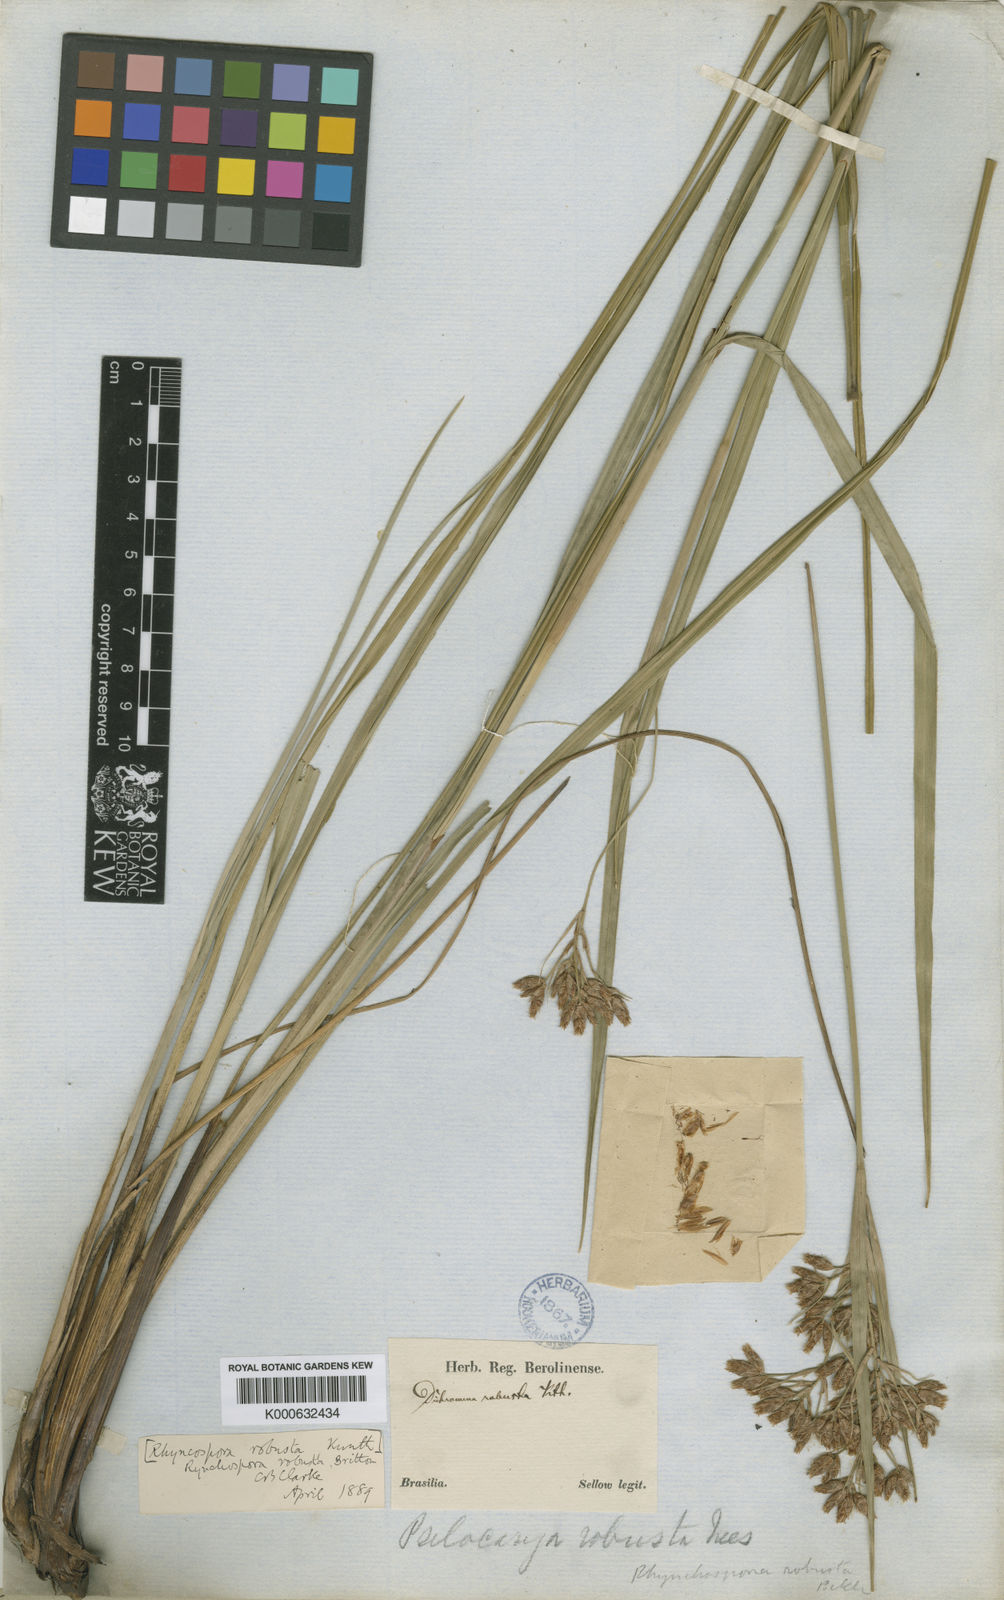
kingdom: Plantae
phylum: Tracheophyta
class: Liliopsida
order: Poales
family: Cyperaceae
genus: Rhynchospora
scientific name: Rhynchospora robusta
